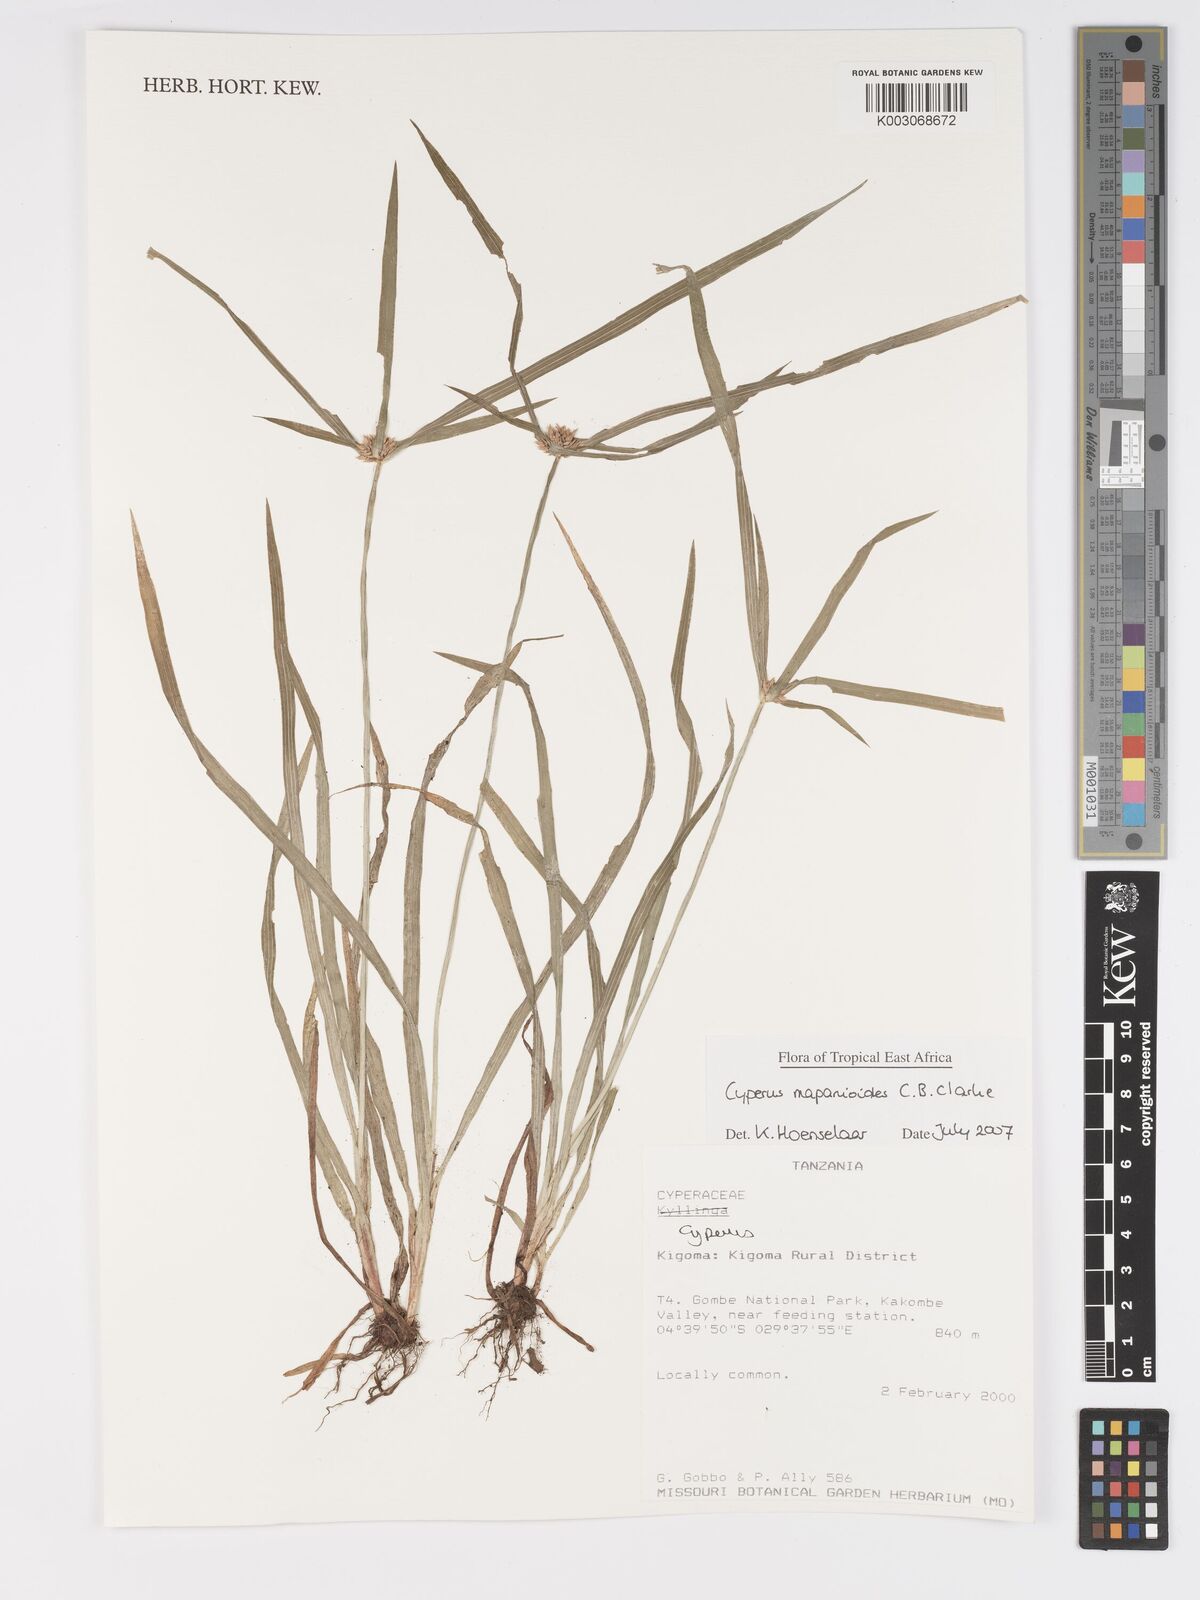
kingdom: Plantae
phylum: Tracheophyta
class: Liliopsida
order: Poales
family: Cyperaceae
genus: Cyperus
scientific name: Cyperus mapanioides
